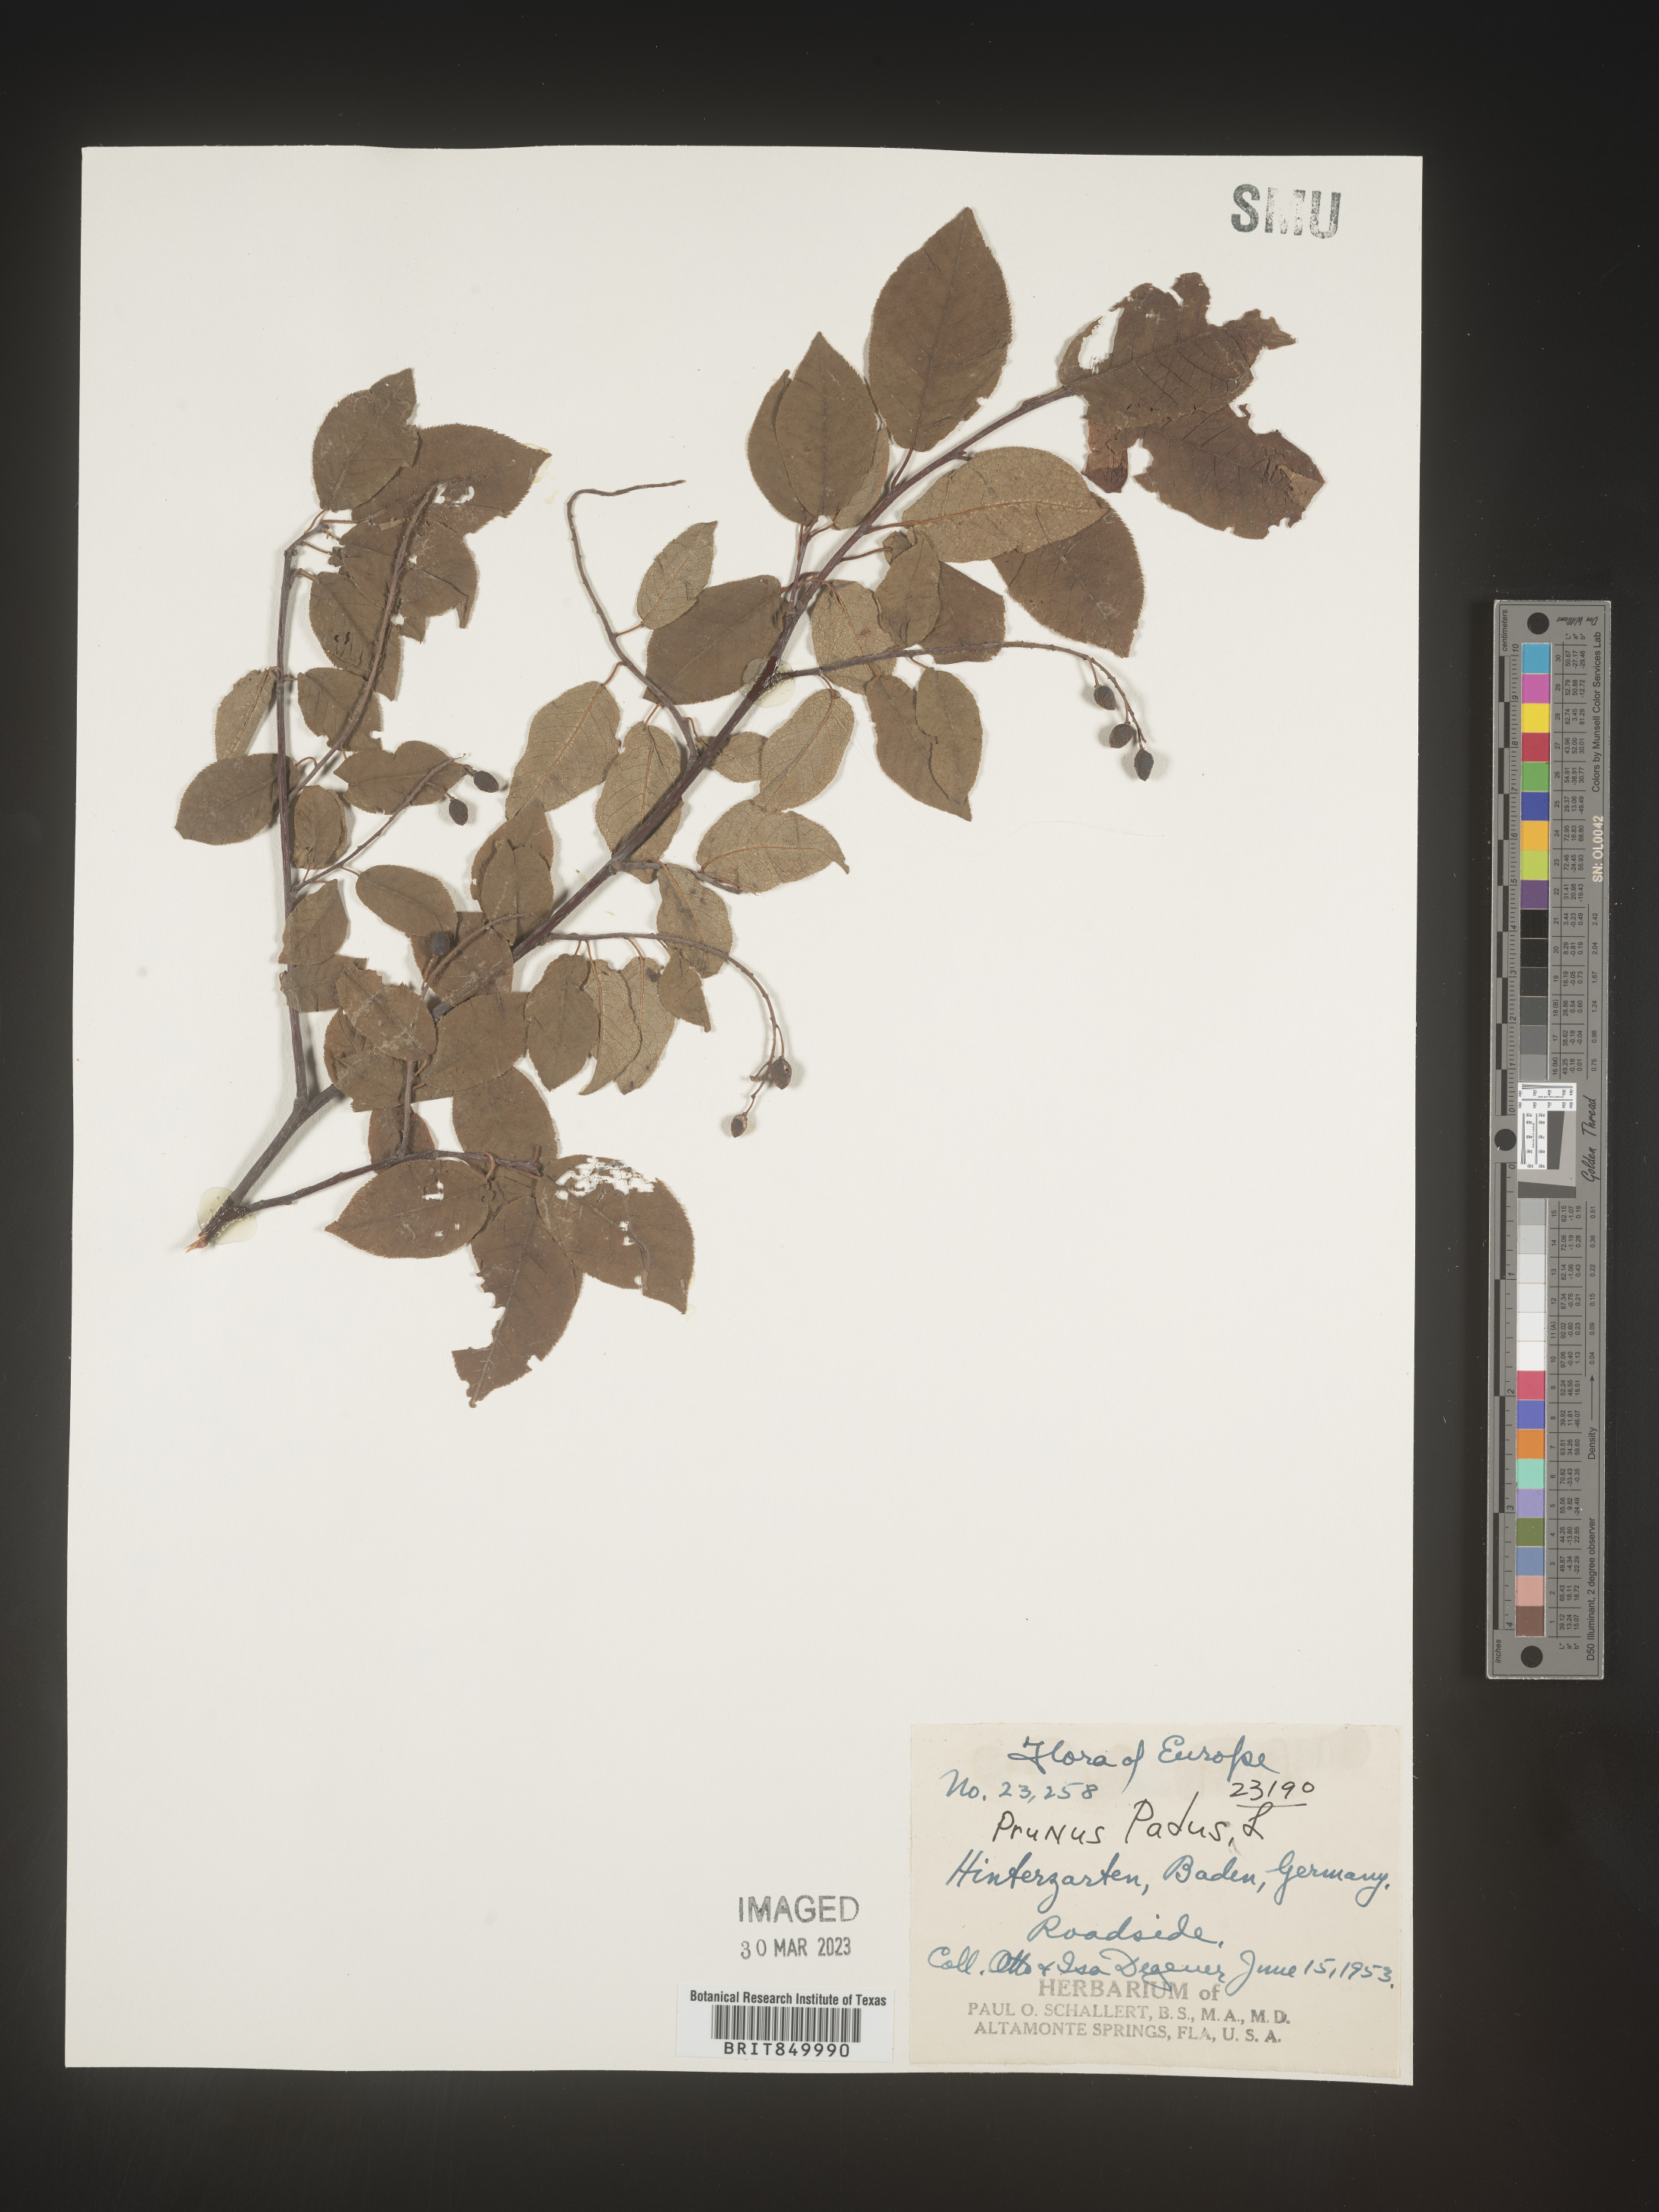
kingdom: Plantae
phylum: Tracheophyta
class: Magnoliopsida
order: Rosales
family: Rosaceae
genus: Prunus
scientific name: Prunus
